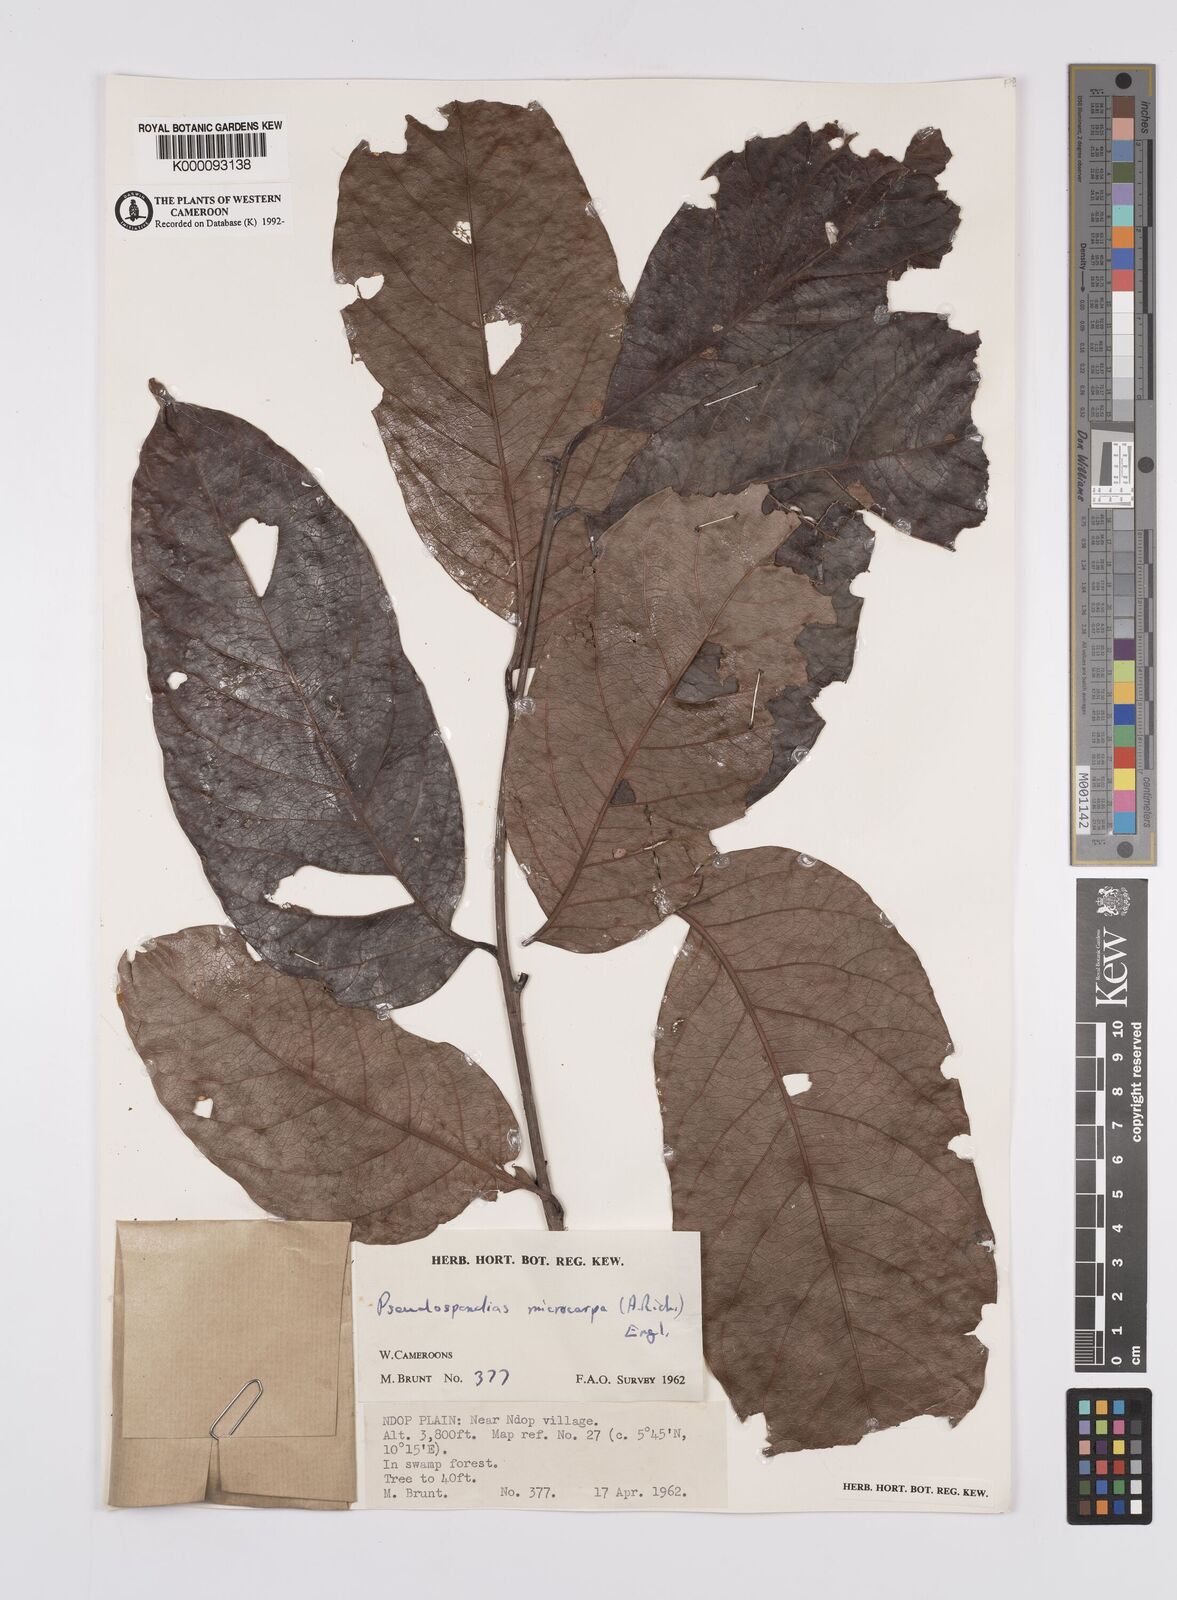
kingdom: Plantae
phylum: Tracheophyta
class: Magnoliopsida
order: Sapindales
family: Anacardiaceae
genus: Pseudospondias
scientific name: Pseudospondias microcarpa
